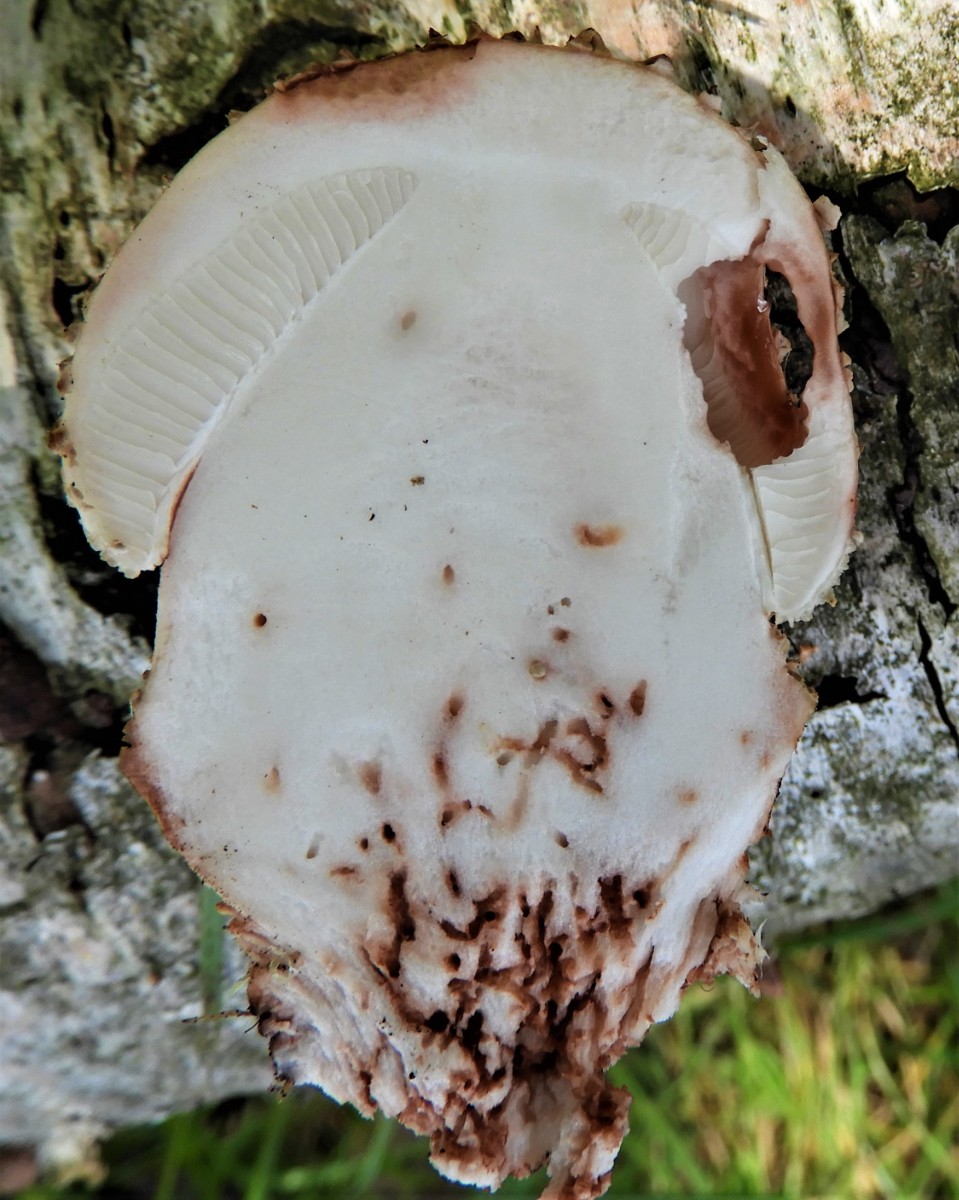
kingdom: Fungi
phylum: Basidiomycota
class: Agaricomycetes
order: Agaricales
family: Amanitaceae
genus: Amanita
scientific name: Amanita rubescens
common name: rødmende fluesvamp
